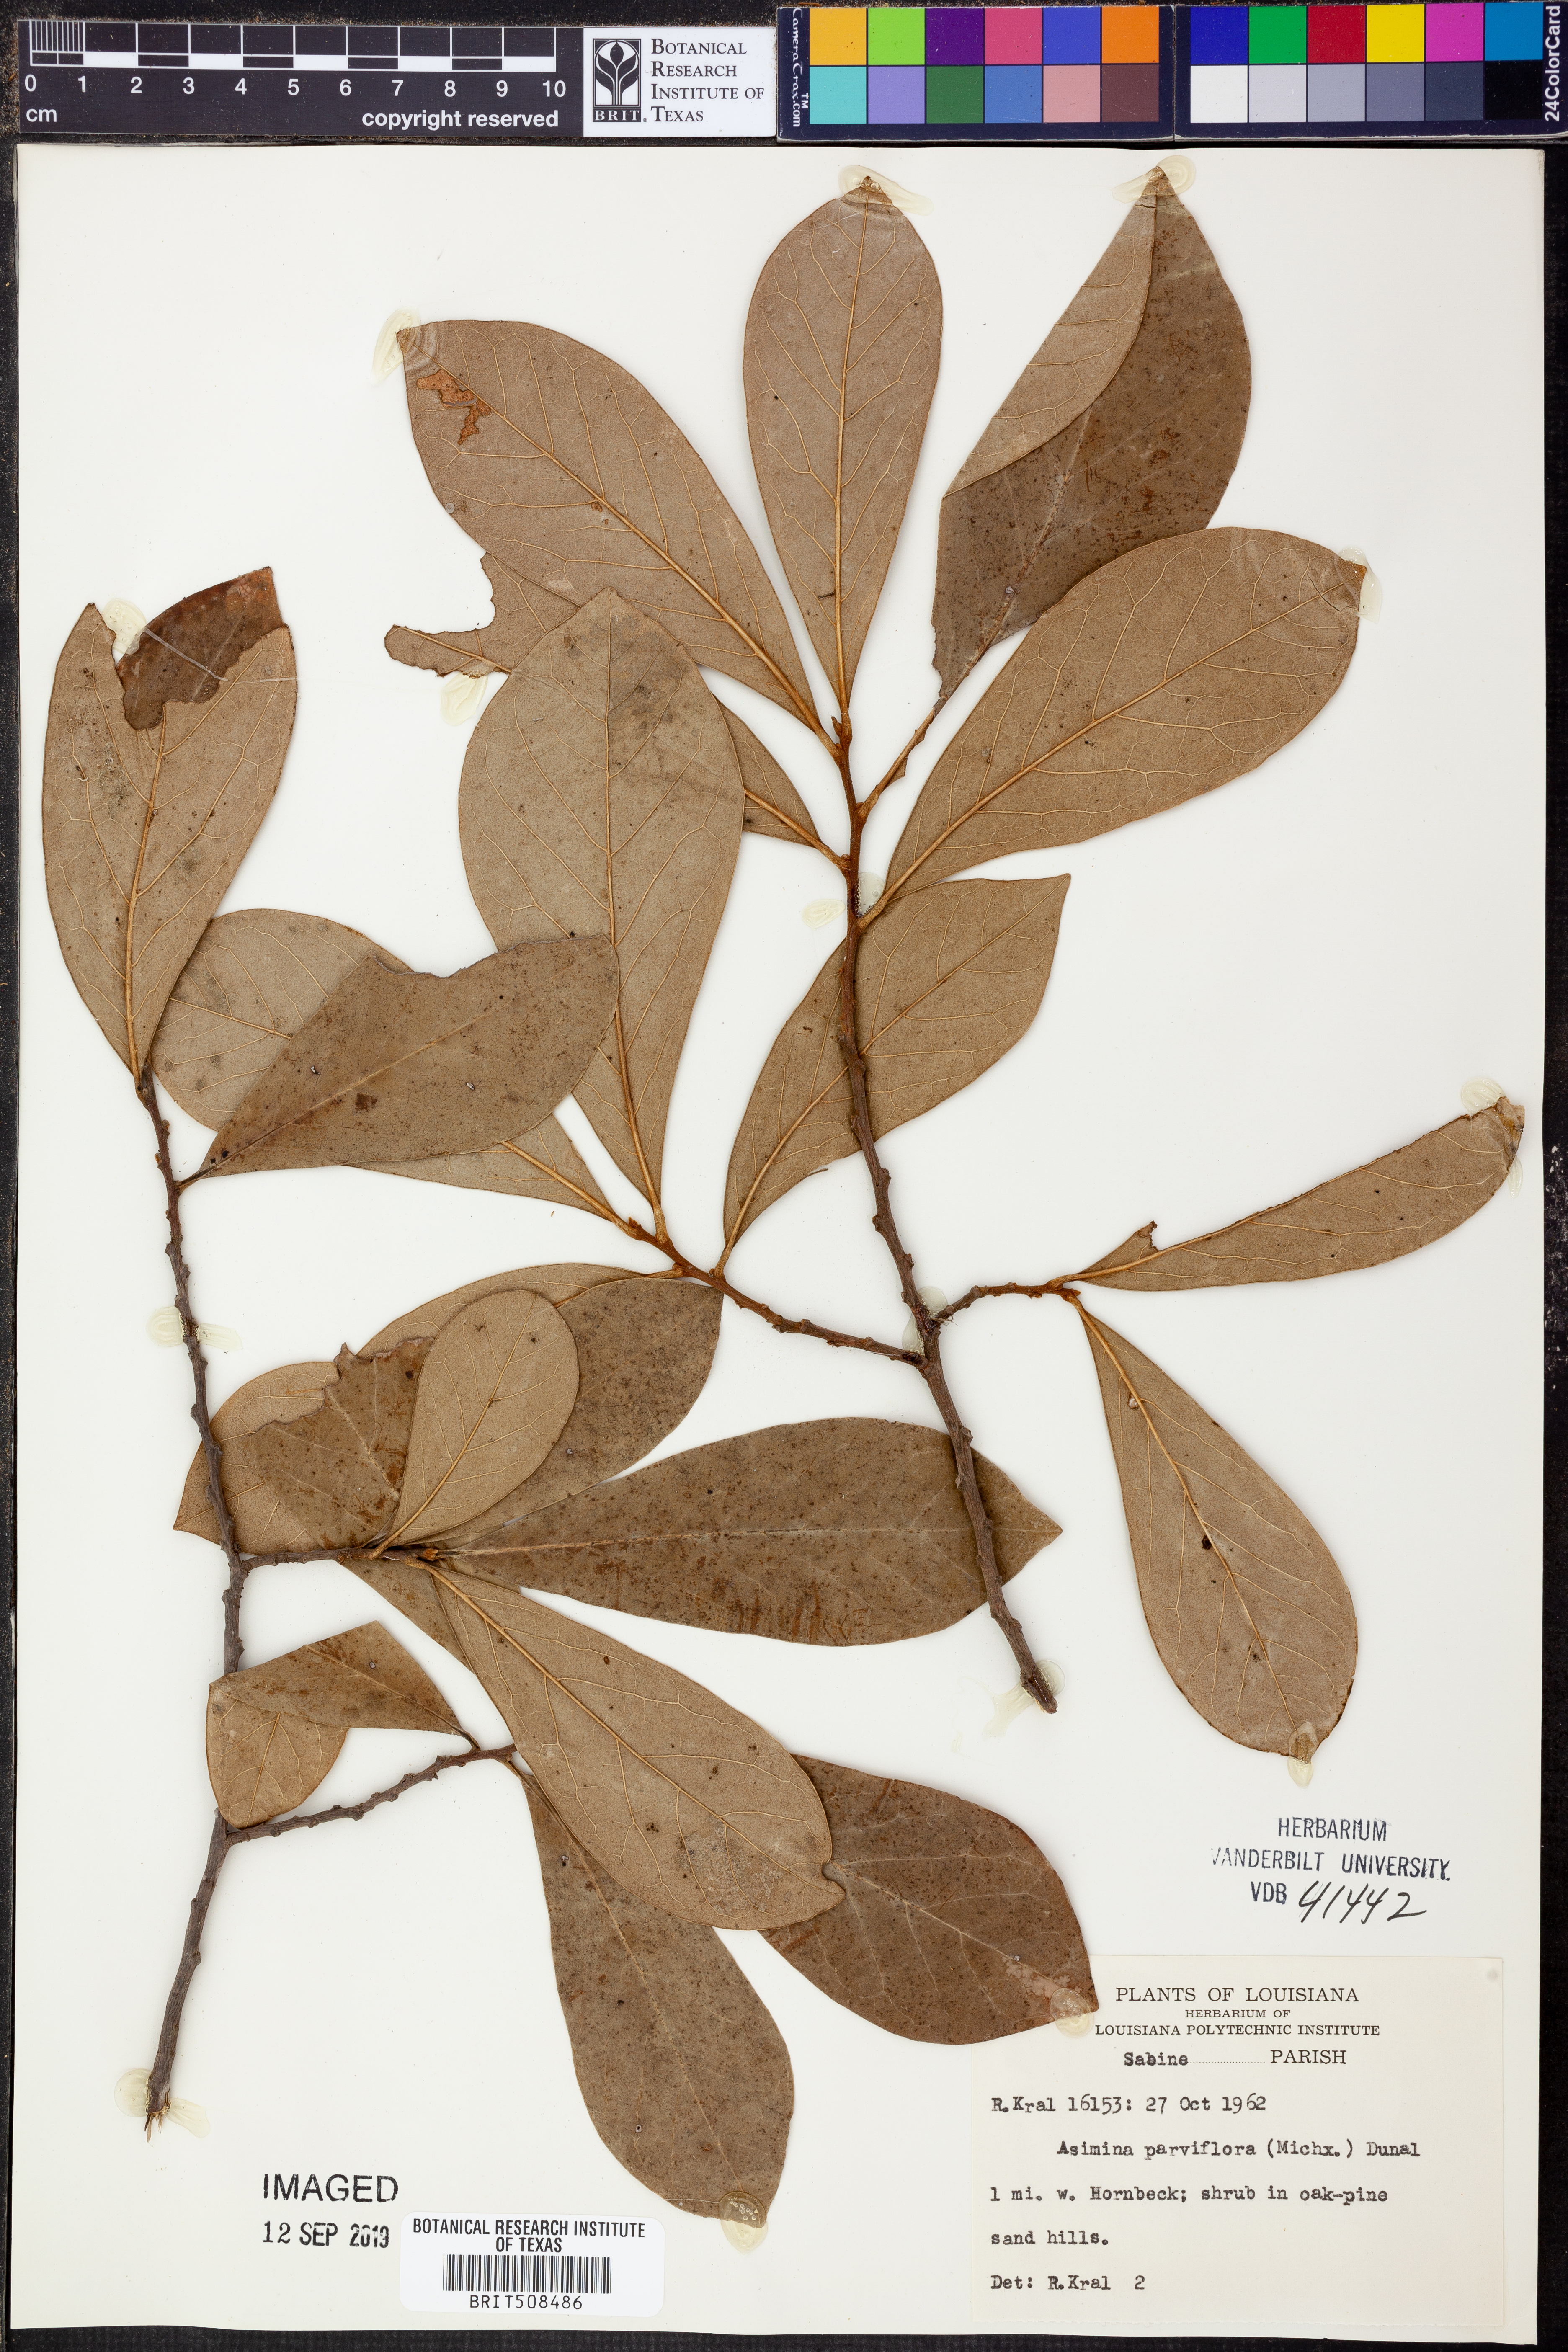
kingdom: Plantae
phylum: Tracheophyta
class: Magnoliopsida
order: Magnoliales
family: Annonaceae
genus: Asimina
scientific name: Asimina parviflora
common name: Dwarf pawpaw
